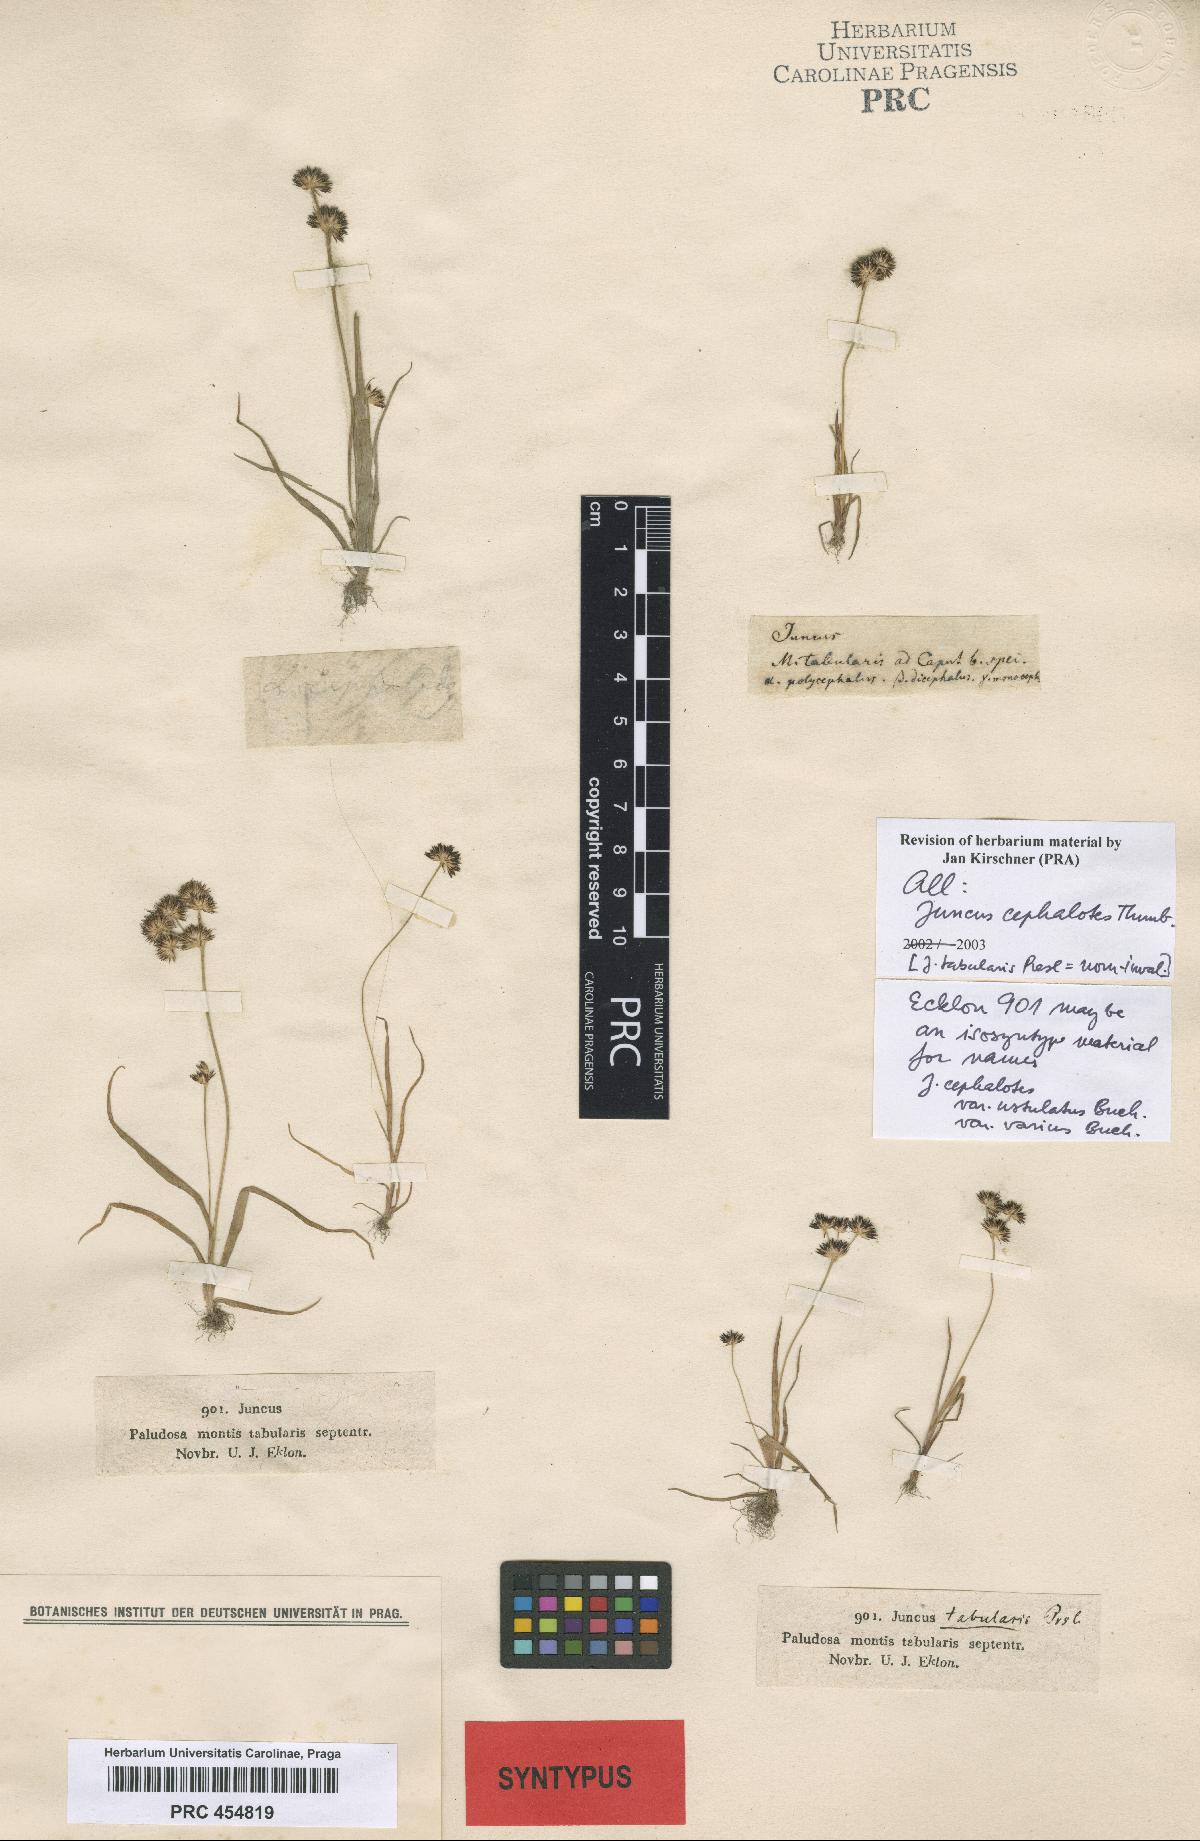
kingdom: Plantae
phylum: Tracheophyta
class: Liliopsida
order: Poales
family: Juncaceae
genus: Juncus
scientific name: Juncus cephalotes
